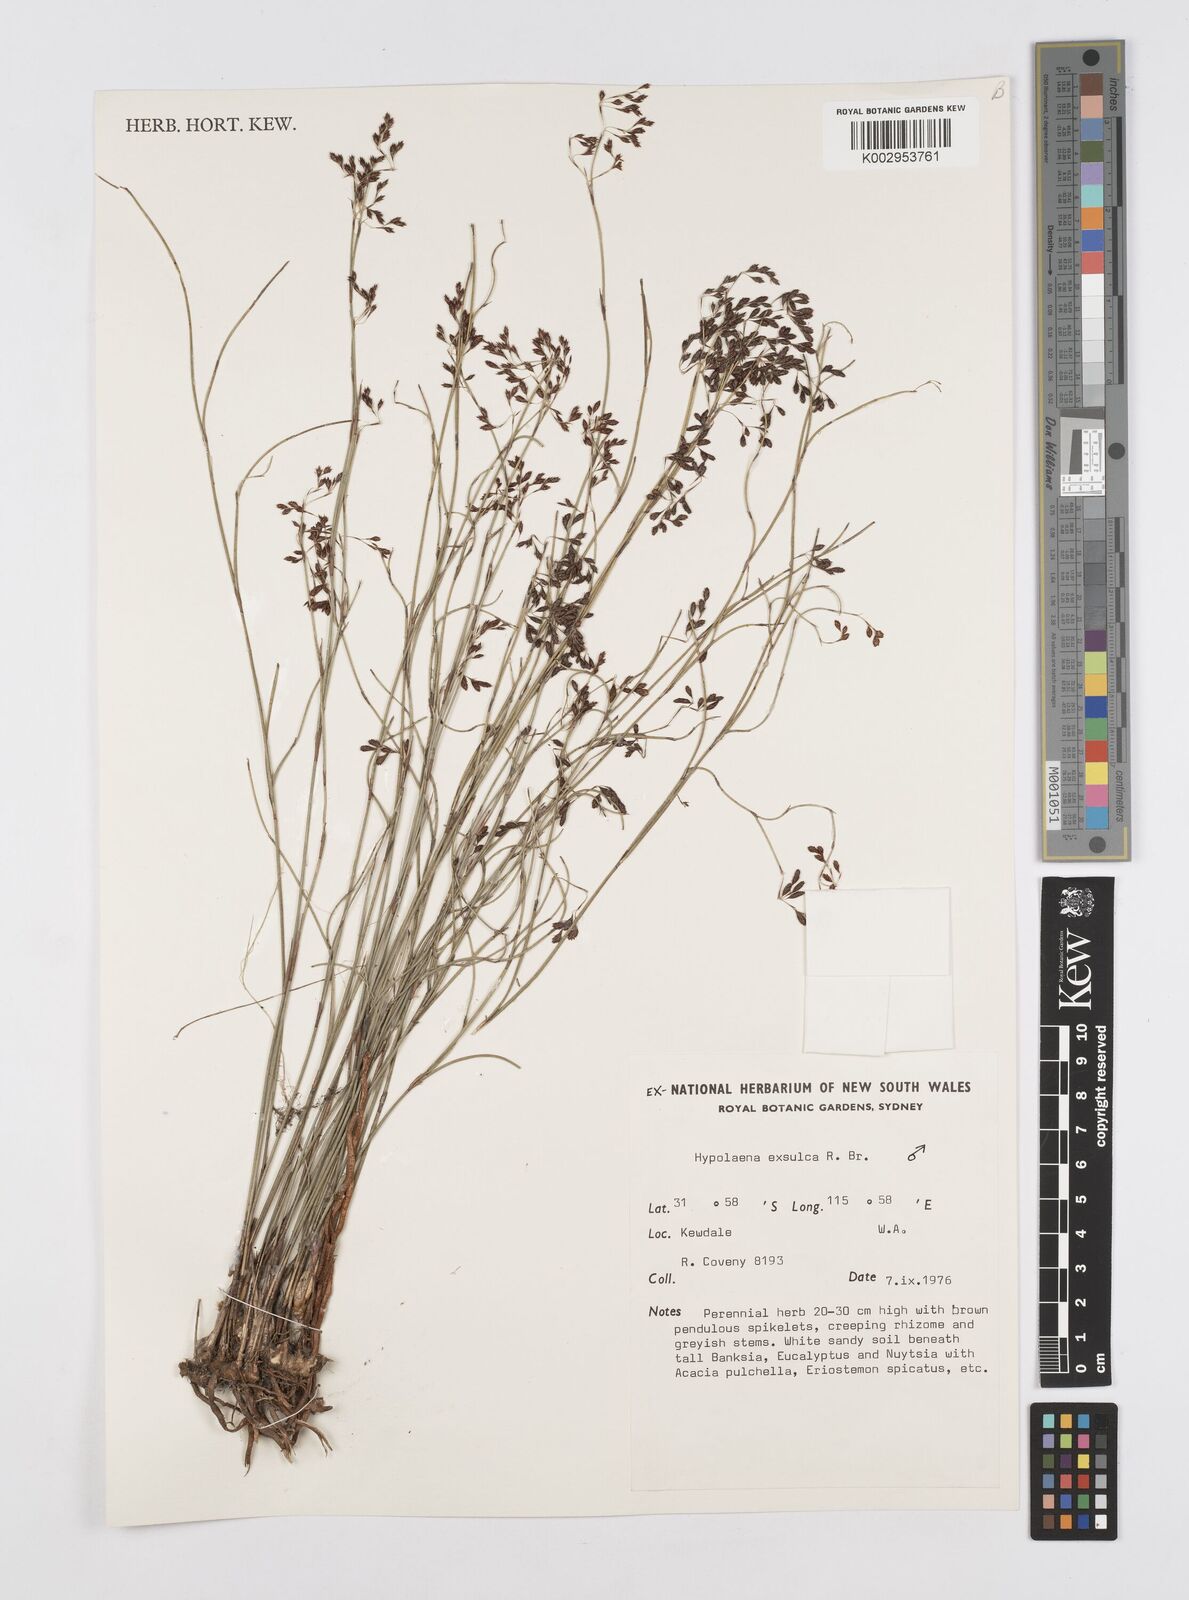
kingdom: Plantae
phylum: Tracheophyta
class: Liliopsida
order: Poales
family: Restionaceae
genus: Hypolaena
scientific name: Hypolaena exsulca
